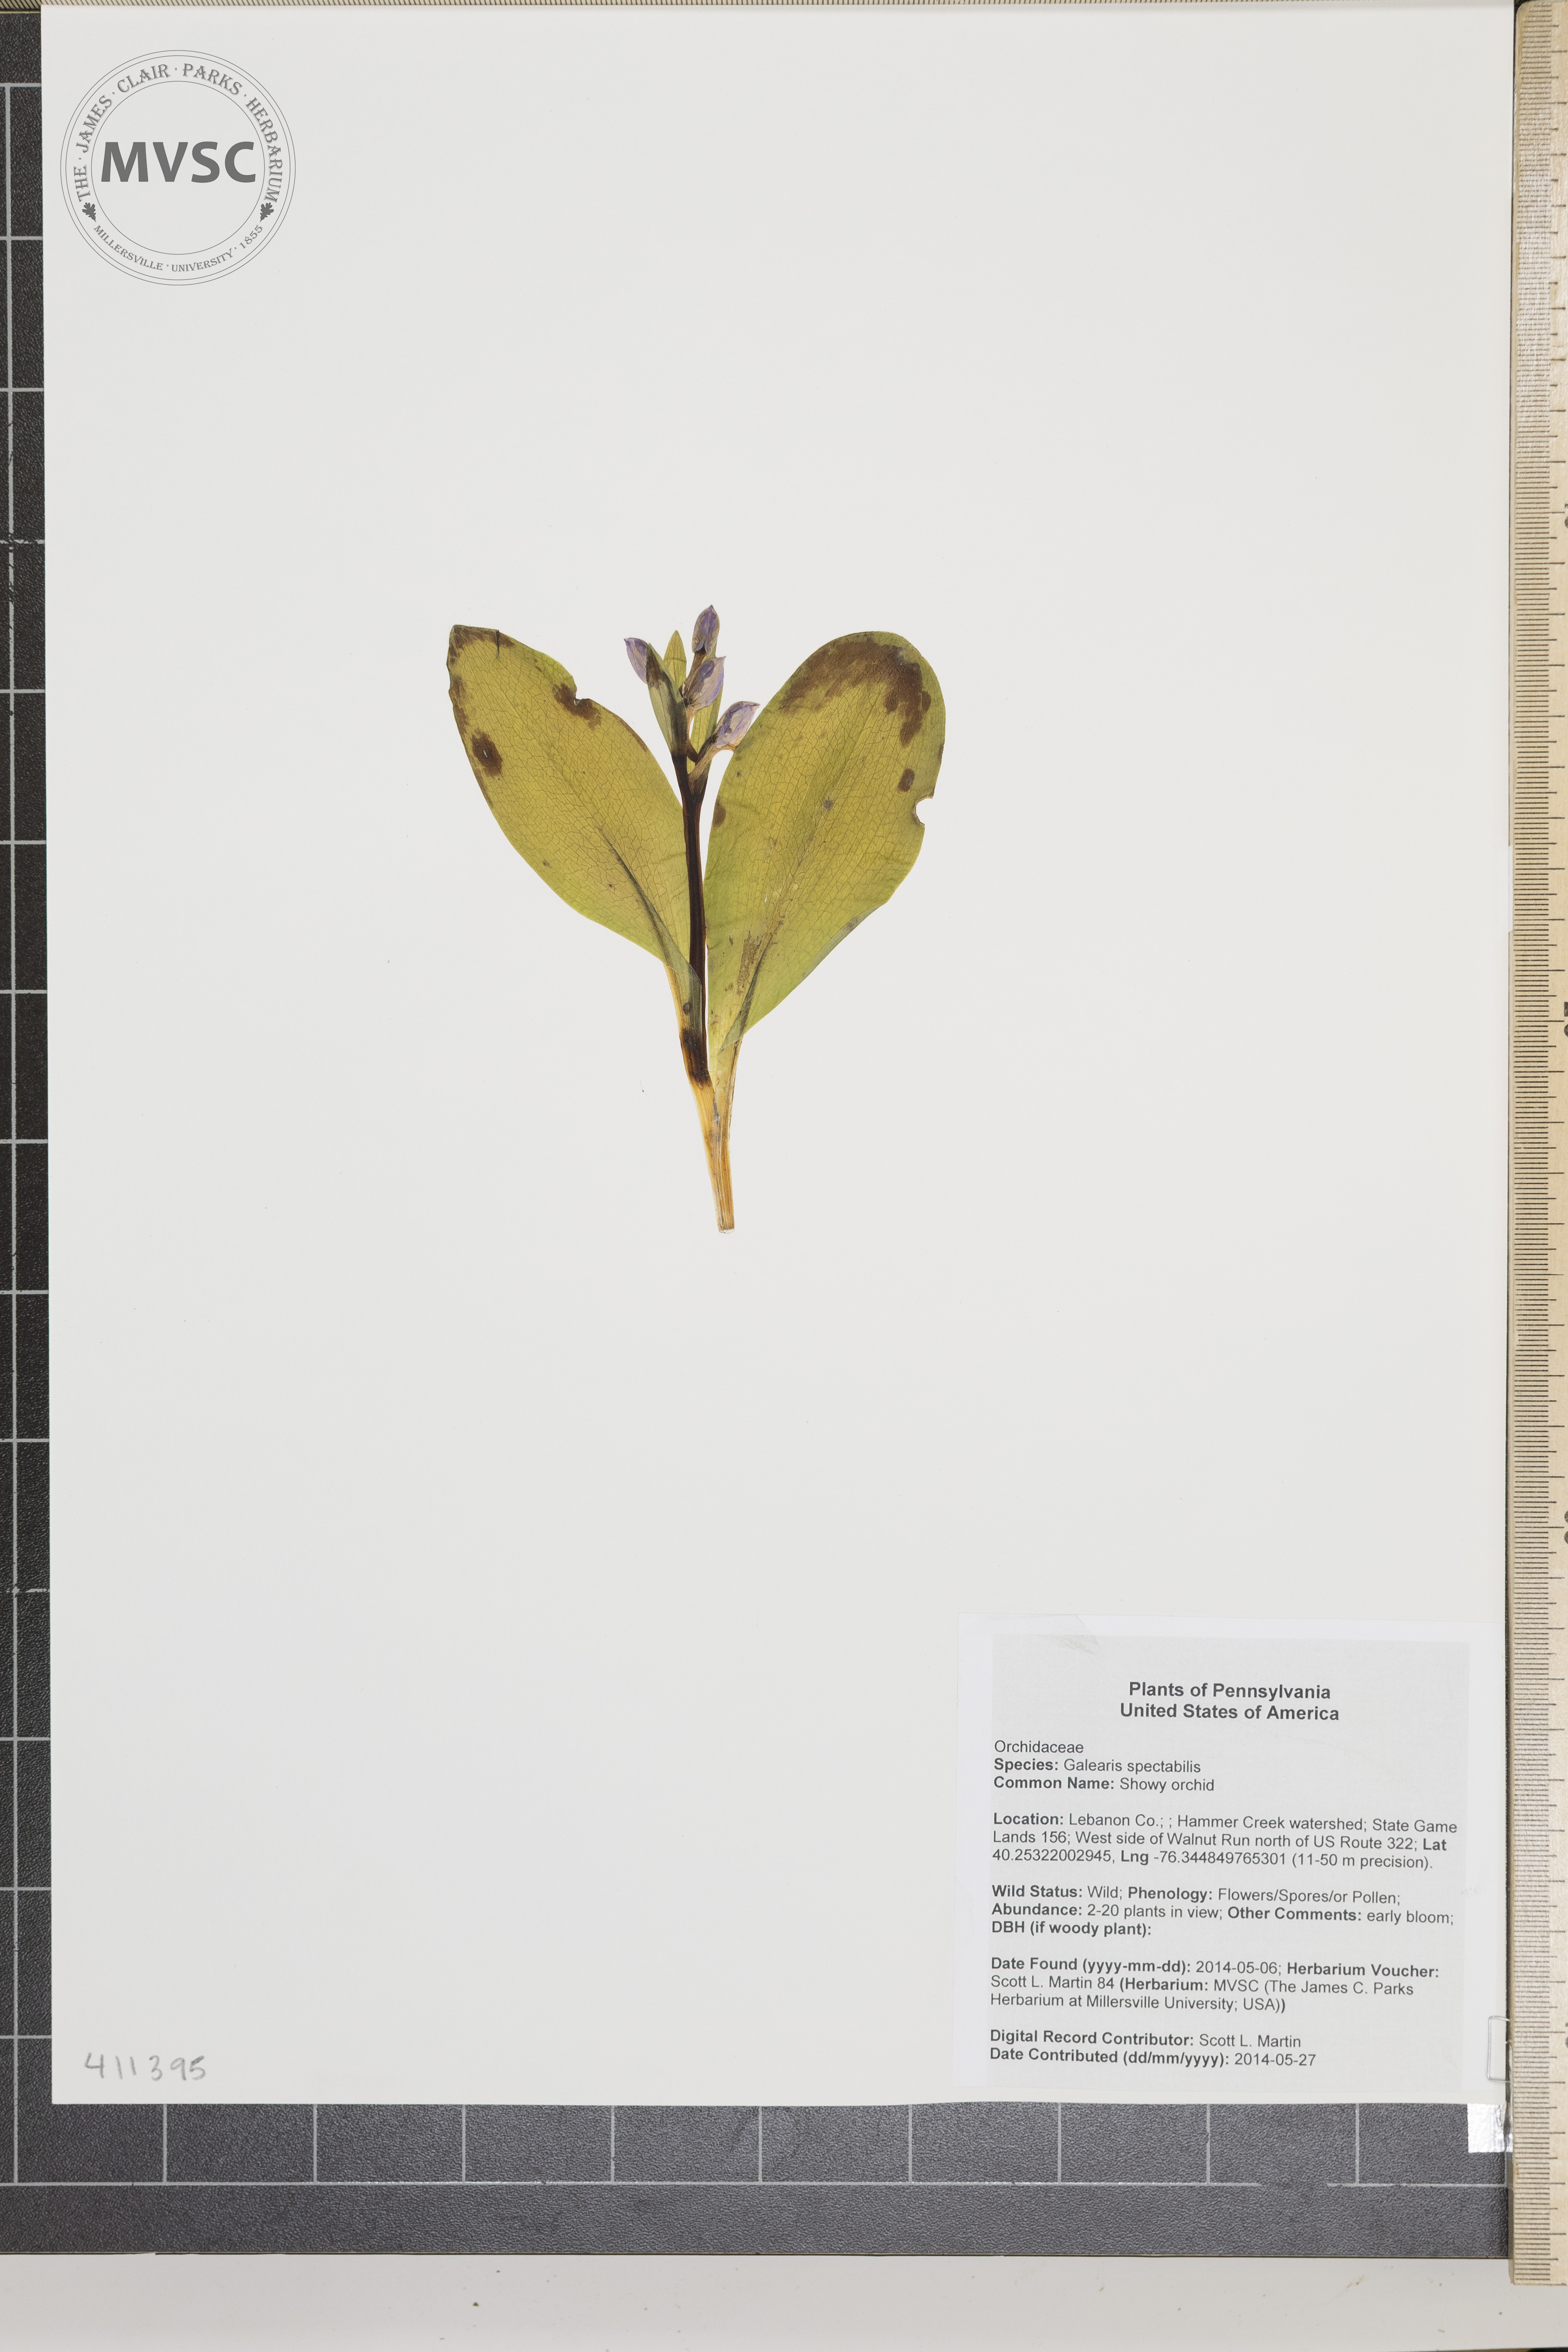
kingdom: Plantae
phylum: Tracheophyta
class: Liliopsida
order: Asparagales
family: Orchidaceae
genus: Galearis
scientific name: Galearis spectabilis
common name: Showy orchid
